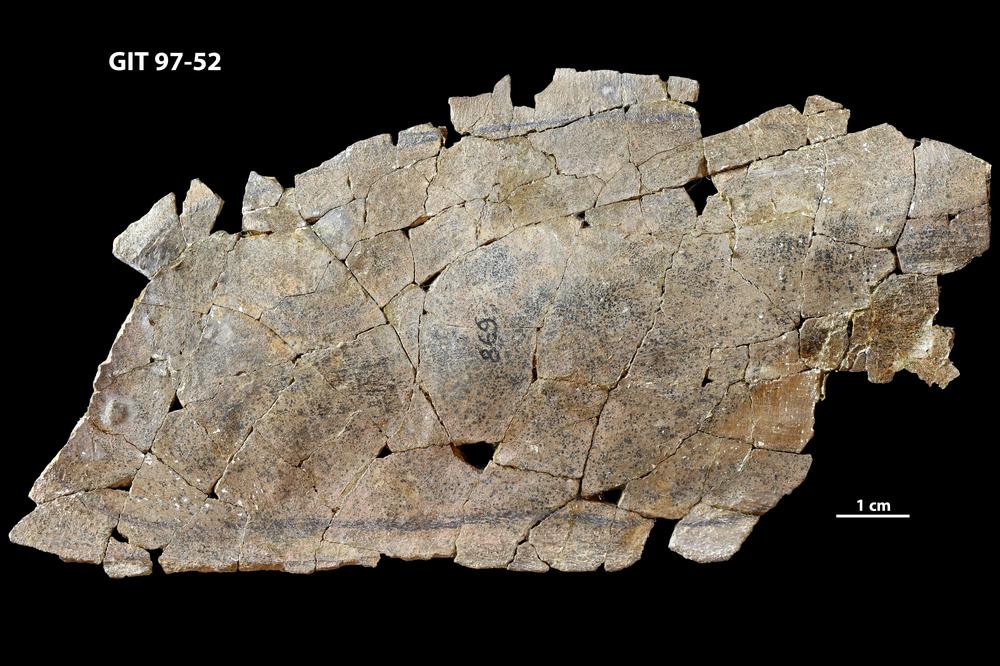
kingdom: Animalia
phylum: Chordata
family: Holonematidae
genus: Holonema
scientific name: Holonema
